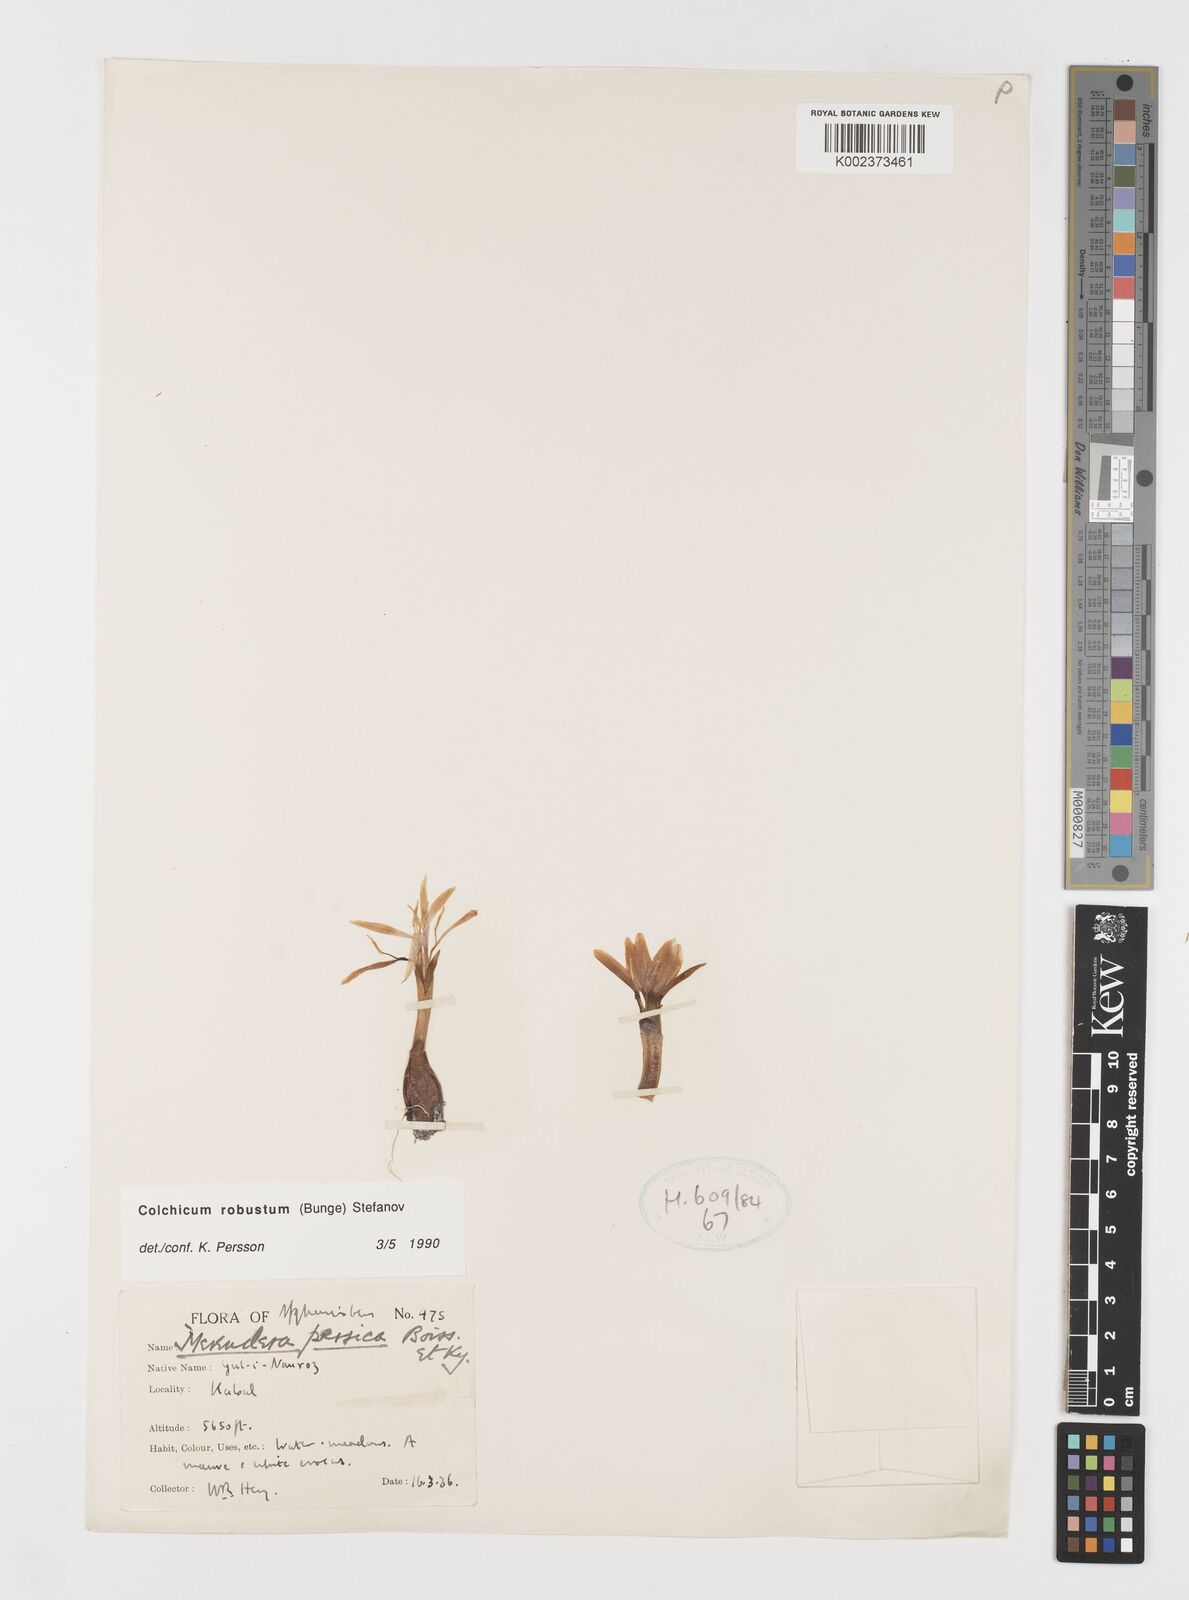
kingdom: Plantae
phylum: Tracheophyta
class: Liliopsida
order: Liliales
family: Colchicaceae
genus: Colchicum
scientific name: Colchicum robustum
